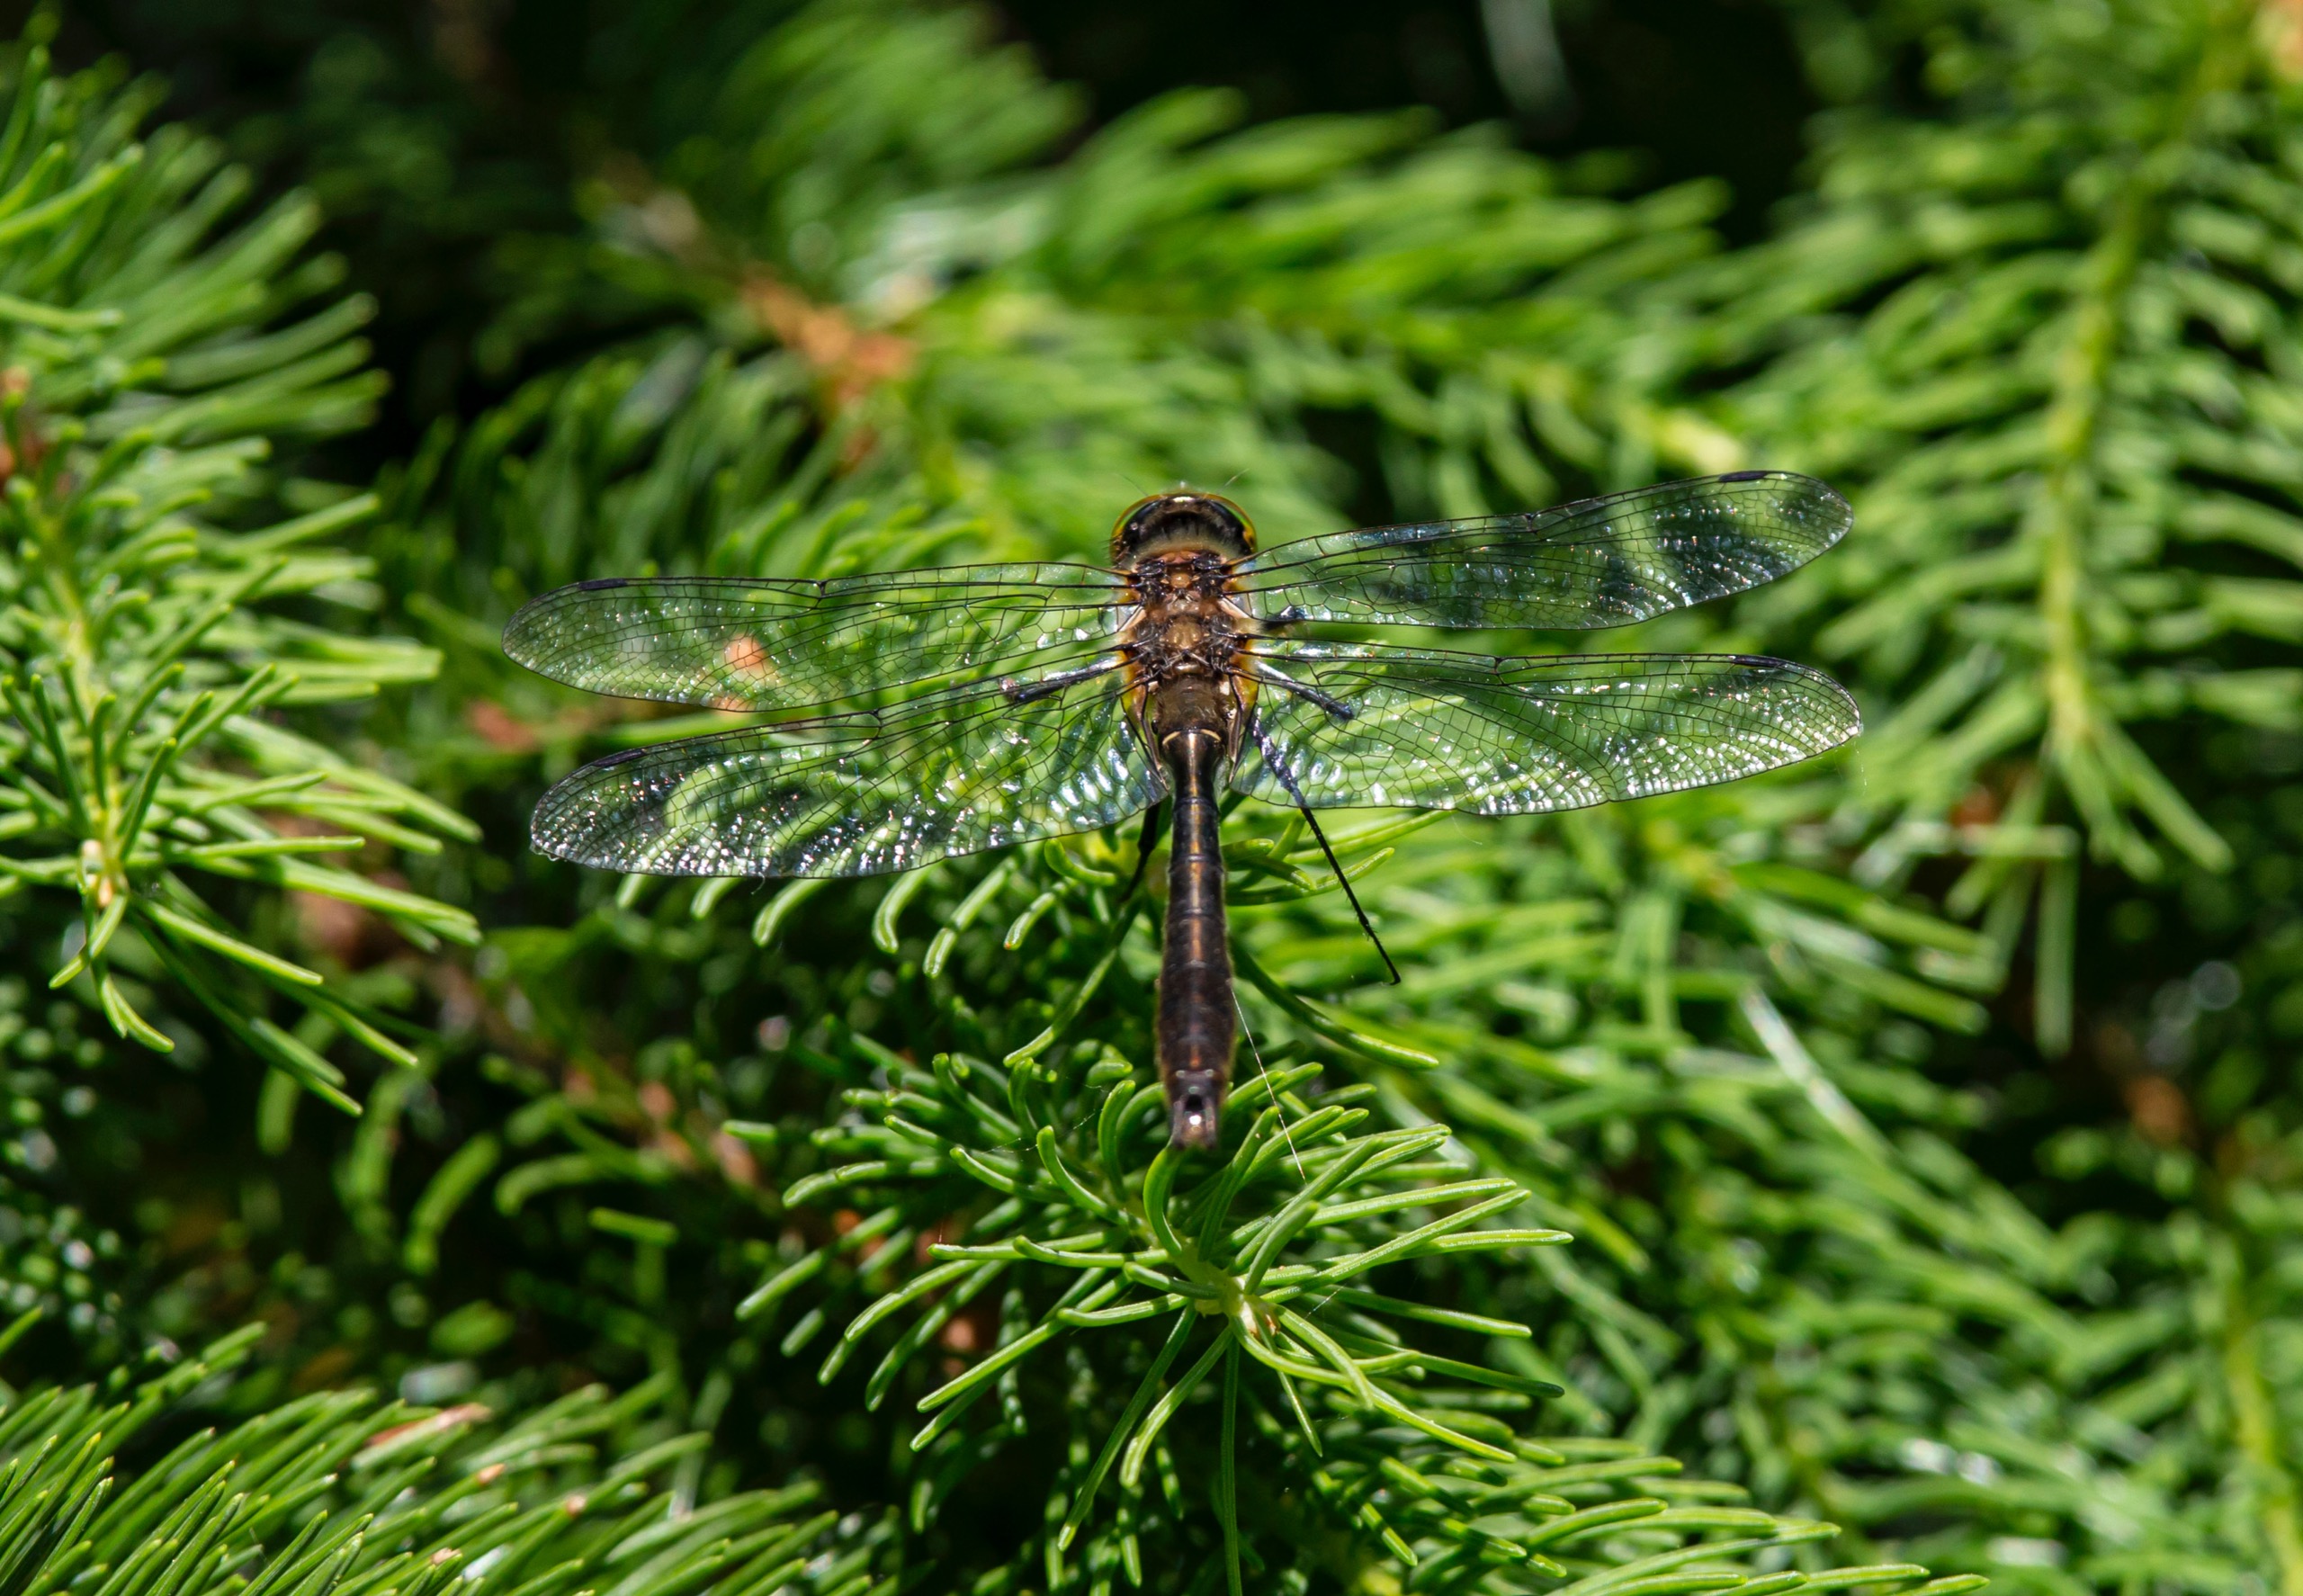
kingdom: Animalia
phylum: Arthropoda
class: Insecta
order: Odonata
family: Corduliidae
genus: Cordulia
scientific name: Cordulia aenea
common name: Grøn smaragdlibel
